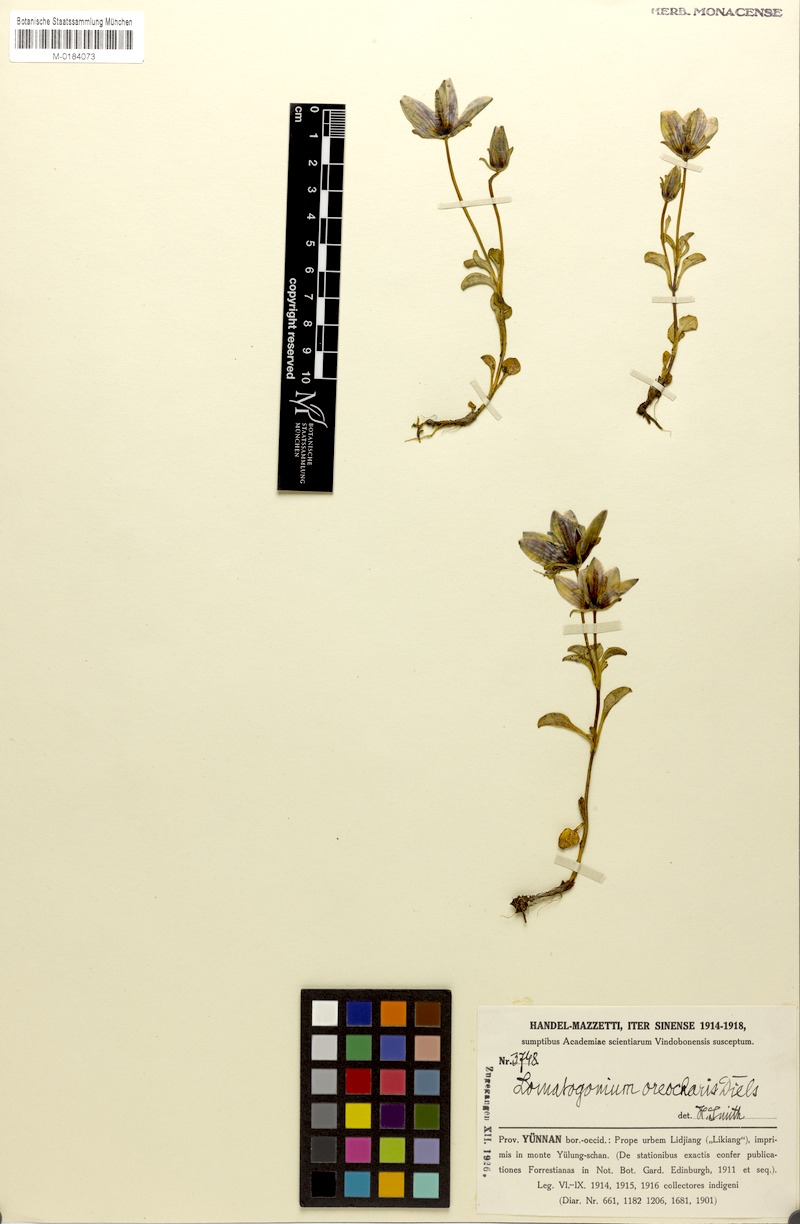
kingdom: Plantae
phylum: Tracheophyta
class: Magnoliopsida
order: Gentianales
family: Gentianaceae
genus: Lomatogonium
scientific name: Lomatogonium oreocharis
